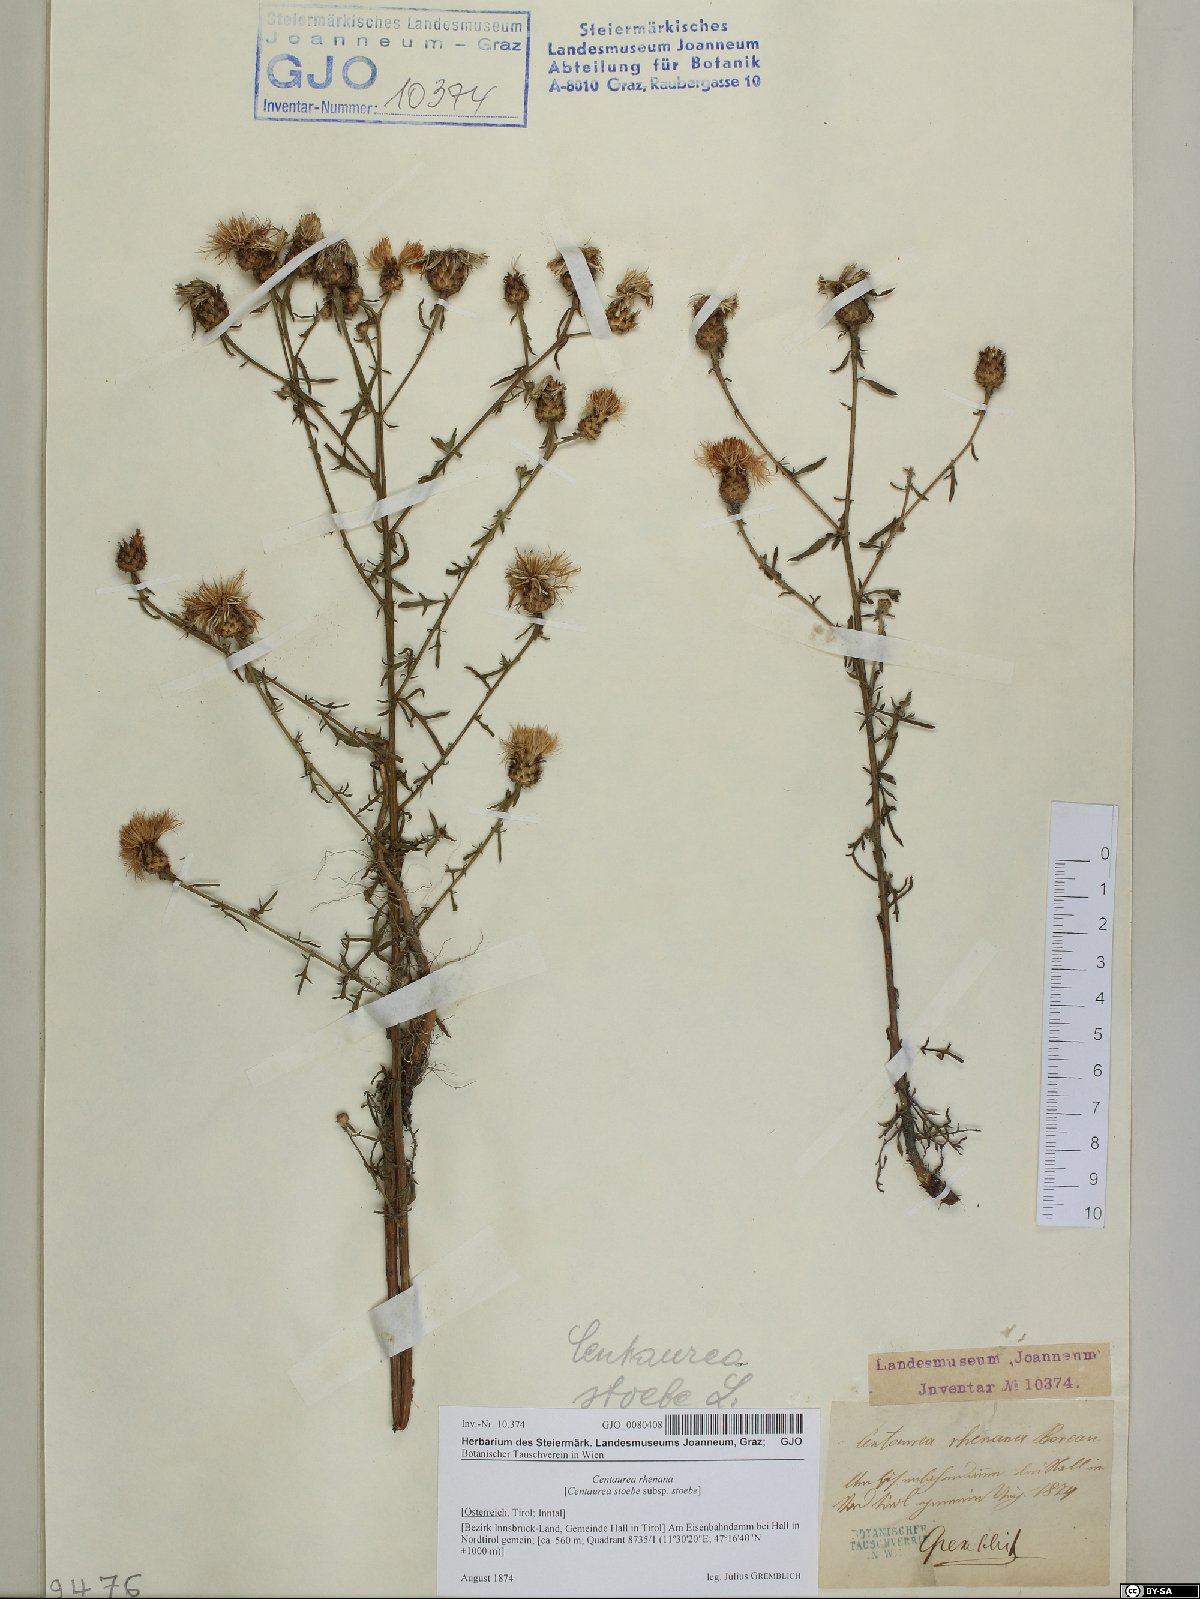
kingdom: Plantae
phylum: Tracheophyta
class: Magnoliopsida
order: Asterales
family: Asteraceae
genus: Centaurea
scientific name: Centaurea stoebe
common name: Spotted knapweed
